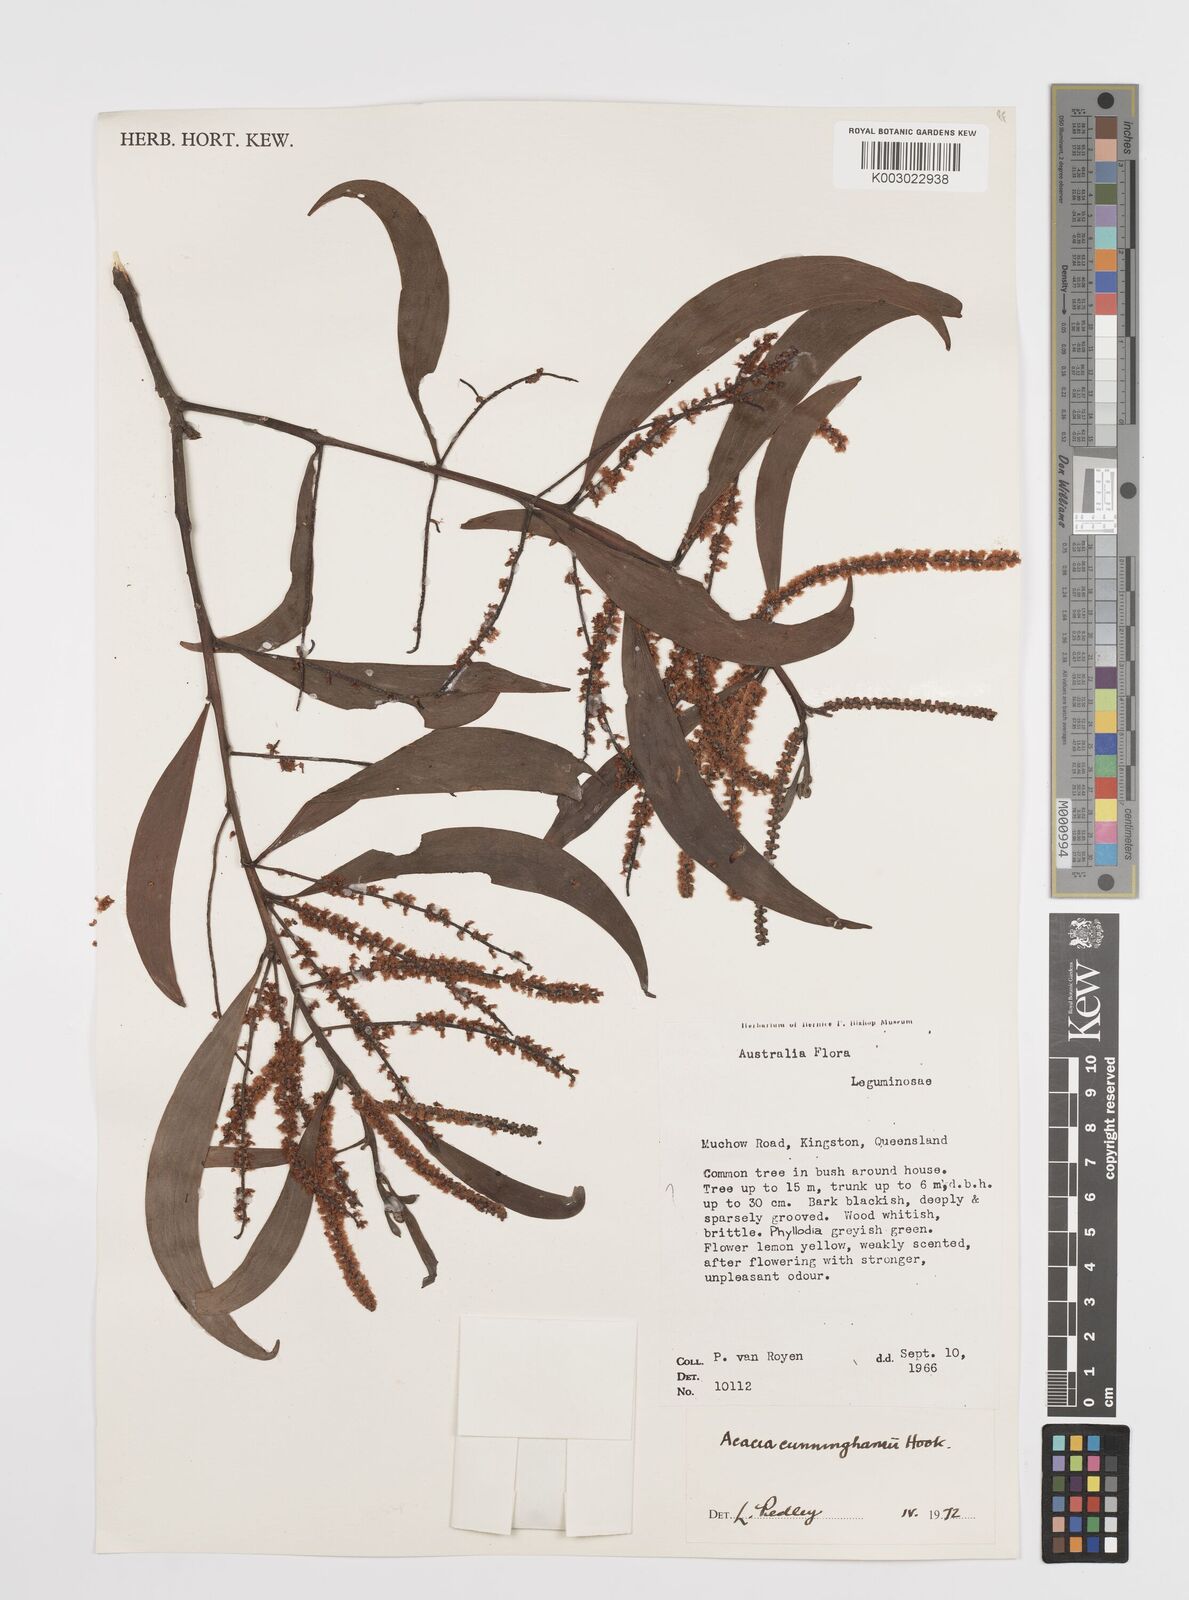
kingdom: Plantae
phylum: Tracheophyta
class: Magnoliopsida
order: Fabales
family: Fabaceae
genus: Acacia
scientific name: Acacia longispicata
